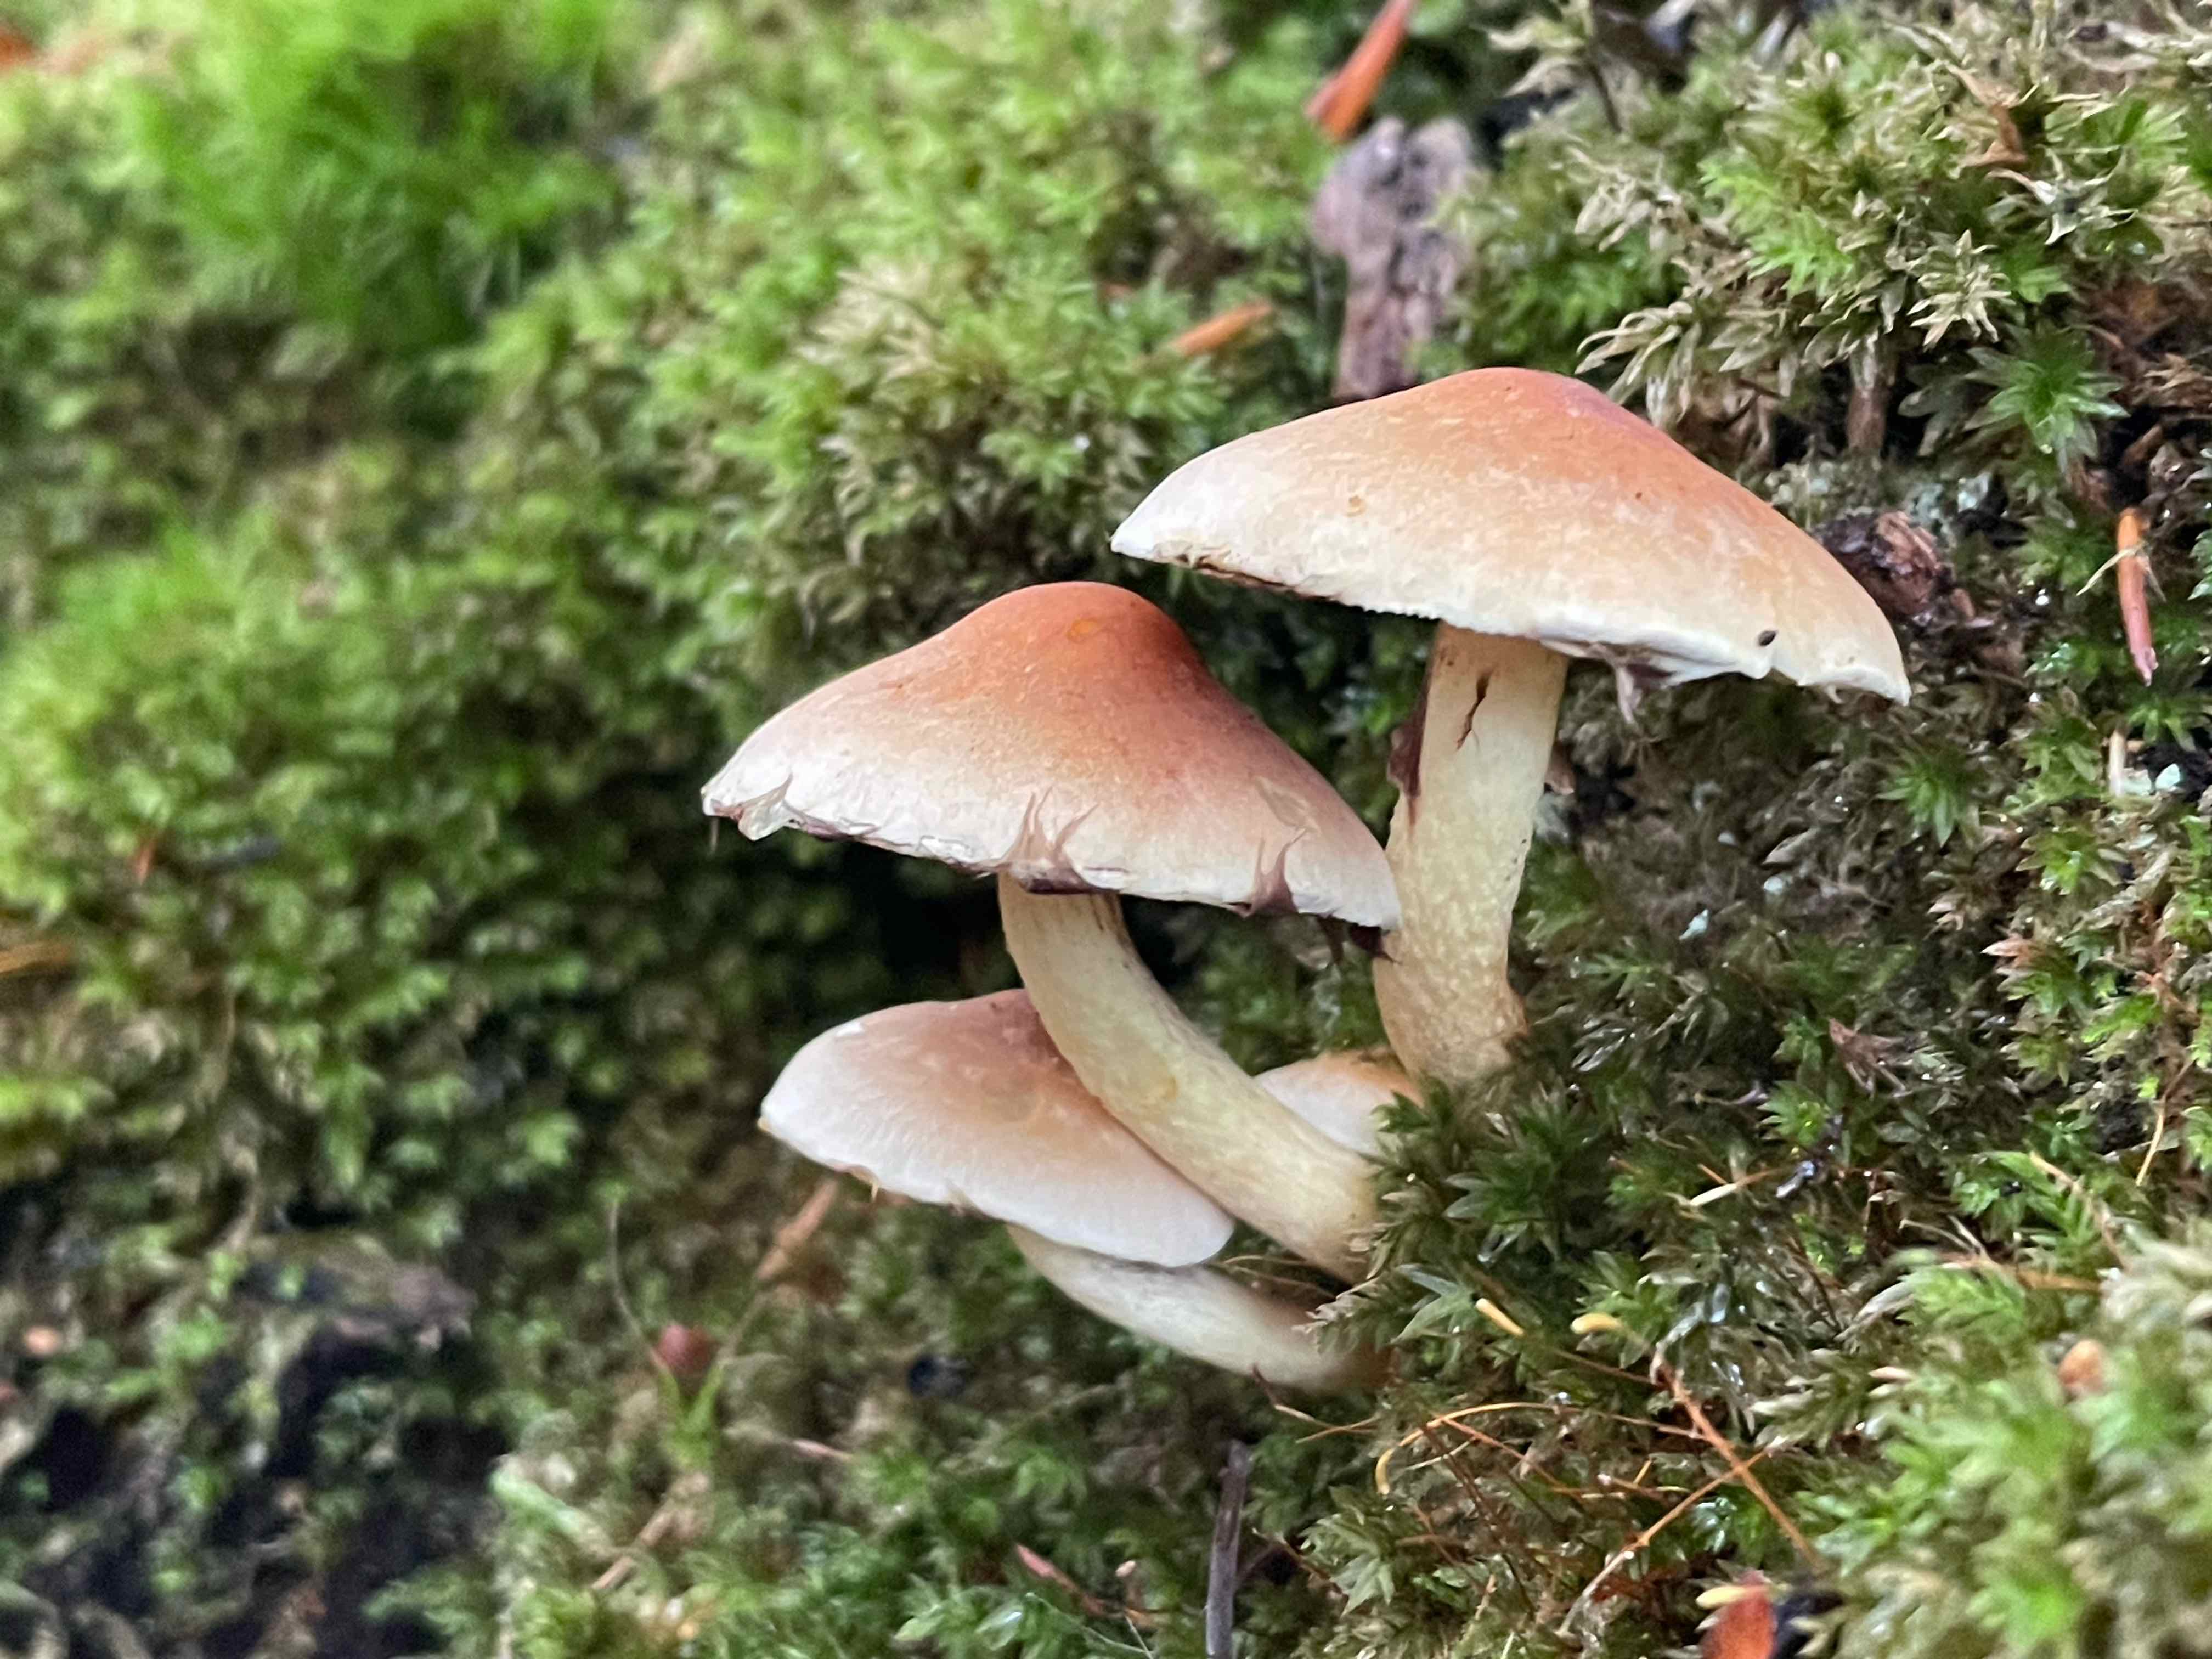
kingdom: Fungi
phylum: Basidiomycota
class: Agaricomycetes
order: Agaricales
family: Strophariaceae
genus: Hypholoma
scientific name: Hypholoma fasciculare
